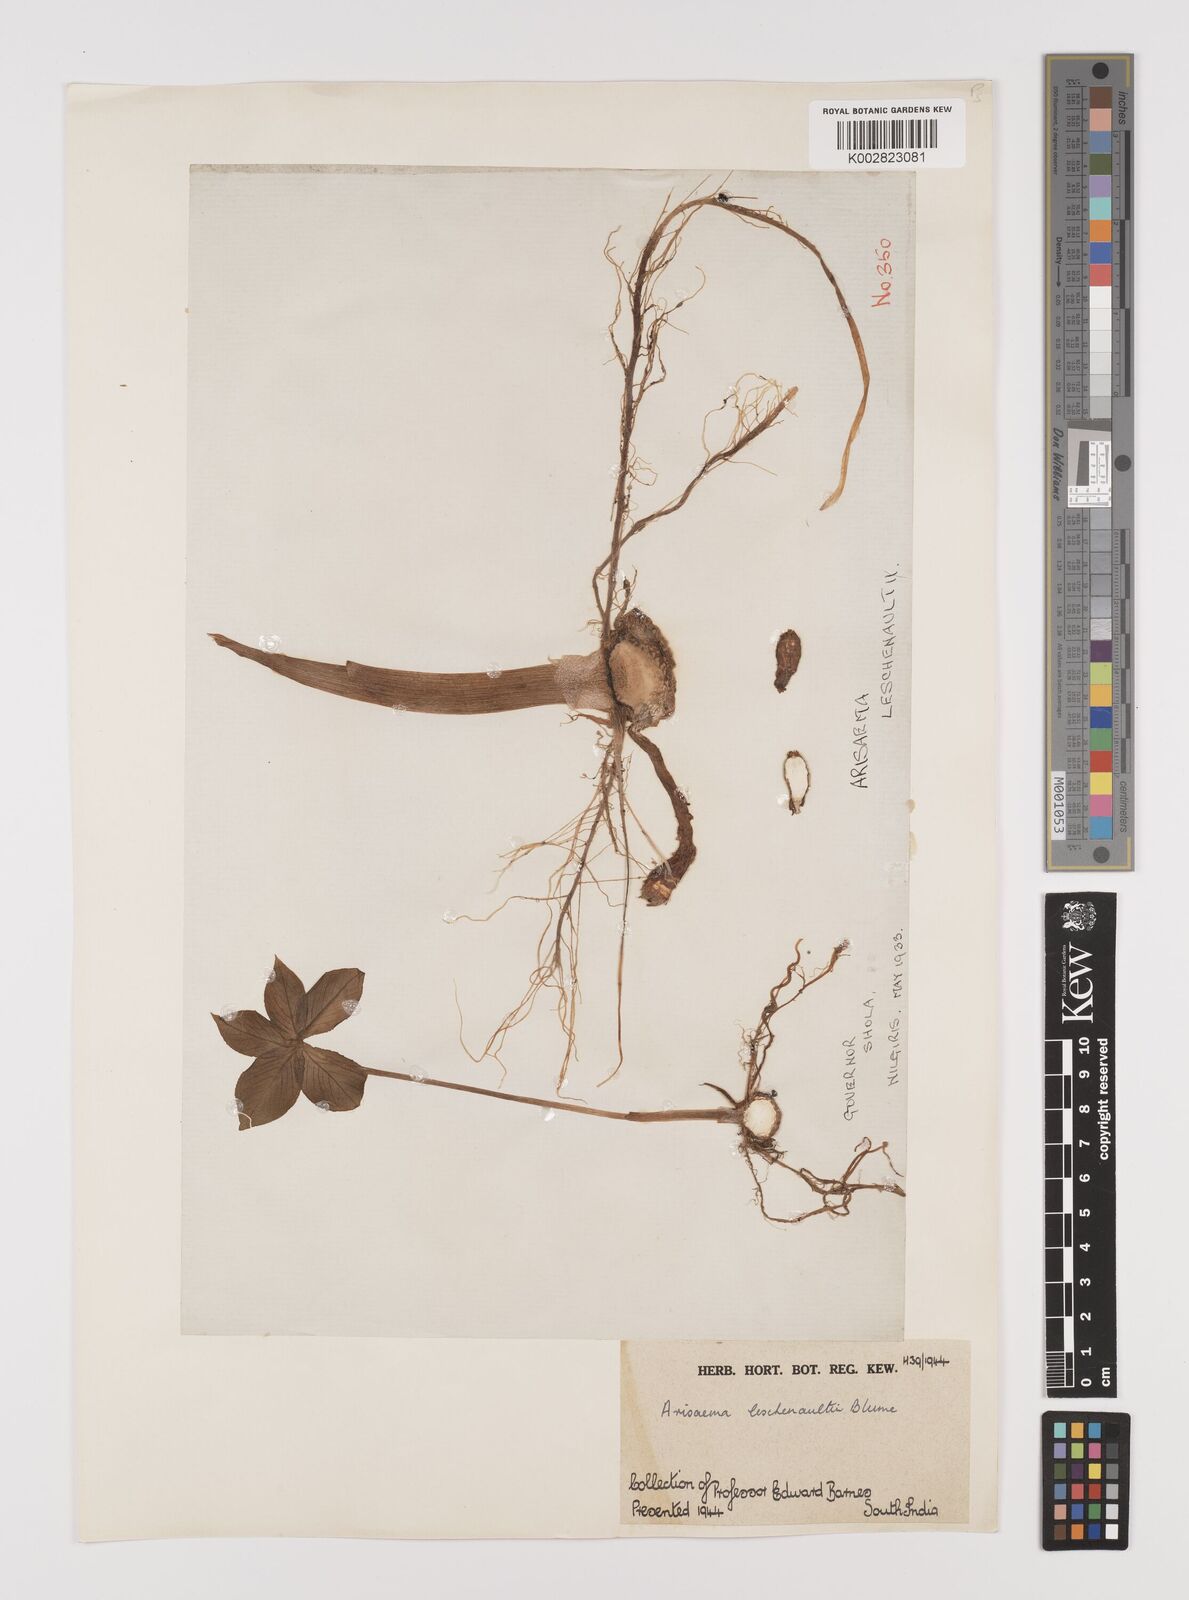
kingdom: Plantae
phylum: Tracheophyta
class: Liliopsida
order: Alismatales
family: Araceae
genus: Arisaema
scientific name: Arisaema leschenaultii
